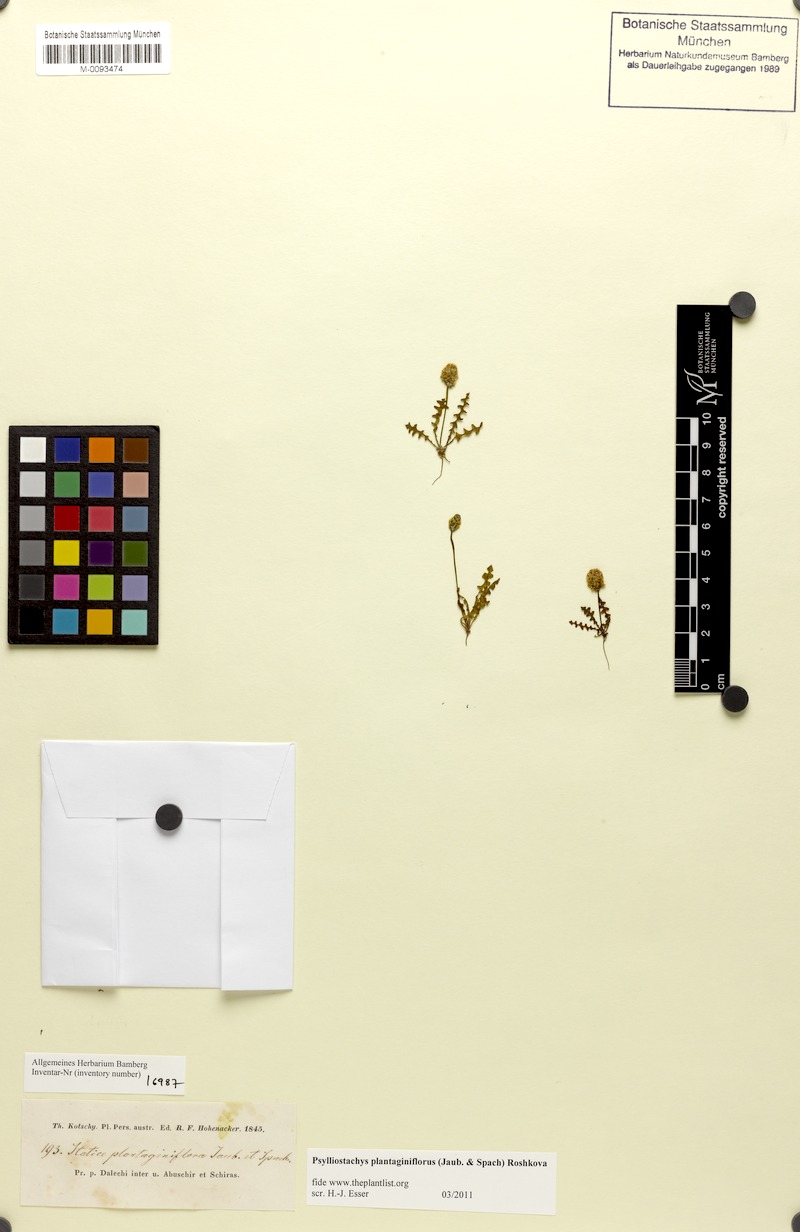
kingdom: Plantae
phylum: Tracheophyta
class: Magnoliopsida
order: Caryophyllales
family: Plumbaginaceae
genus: Psylliostachys
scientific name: Psylliostachys spicatus
